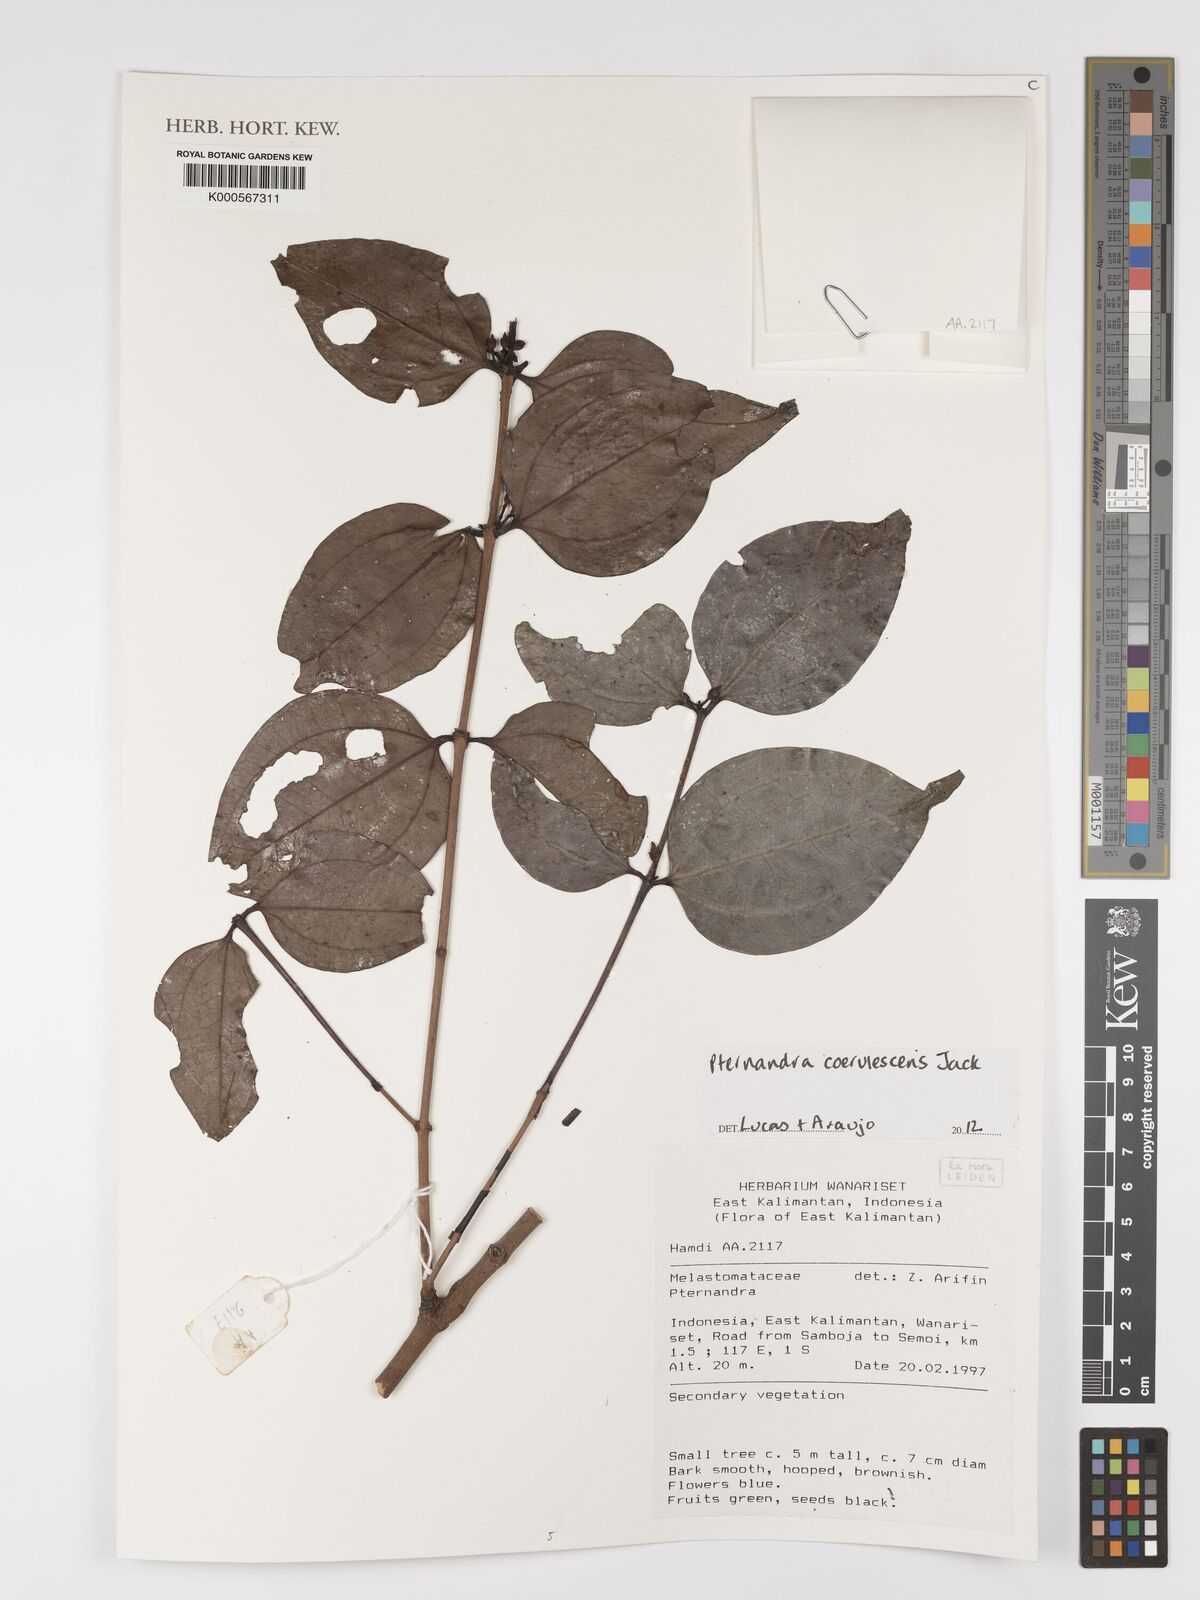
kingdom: Plantae
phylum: Tracheophyta
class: Magnoliopsida
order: Myrtales
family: Melastomataceae
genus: Pternandra
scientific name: Pternandra
